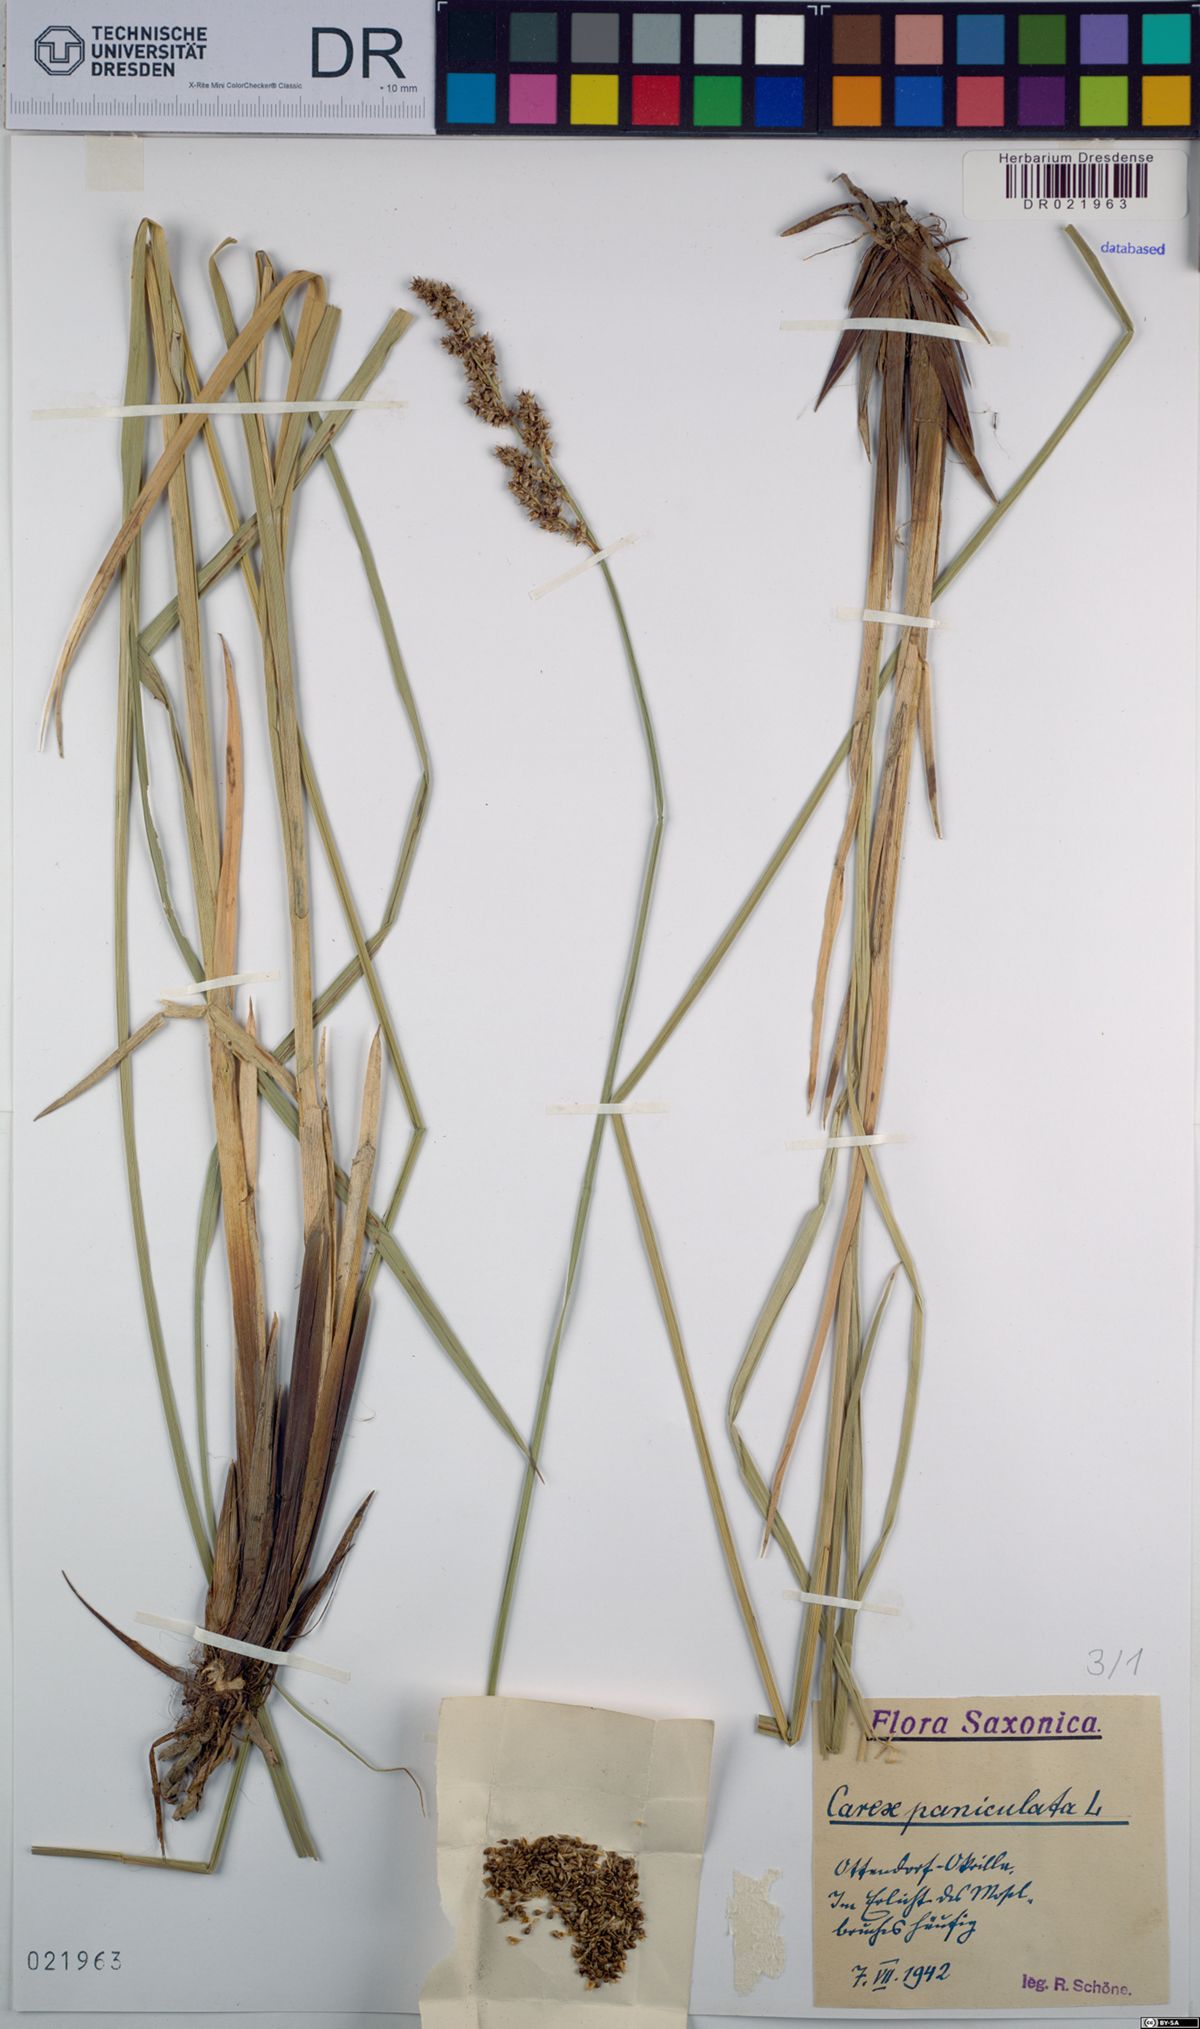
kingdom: Plantae
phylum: Tracheophyta
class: Liliopsida
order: Poales
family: Cyperaceae
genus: Carex
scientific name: Carex paniculata
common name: Greater tussock-sedge
